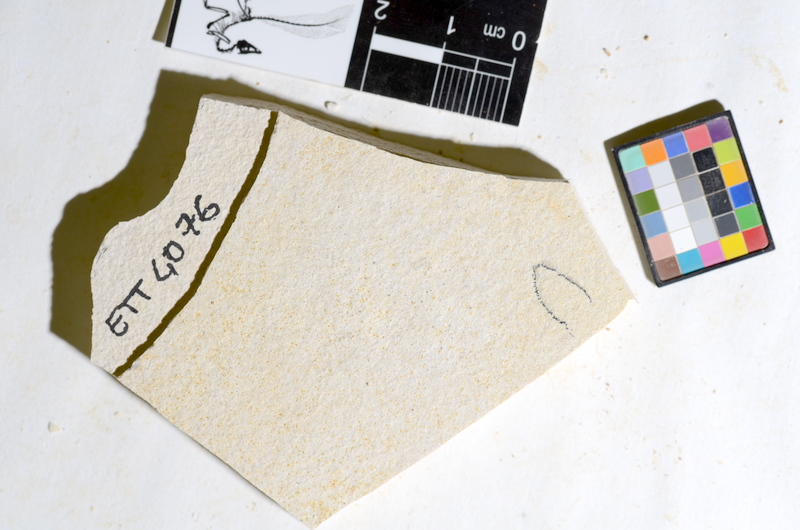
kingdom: Animalia
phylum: Chordata
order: Salmoniformes
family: Orthogonikleithridae
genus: Orthogonikleithrus
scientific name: Orthogonikleithrus hoelli
